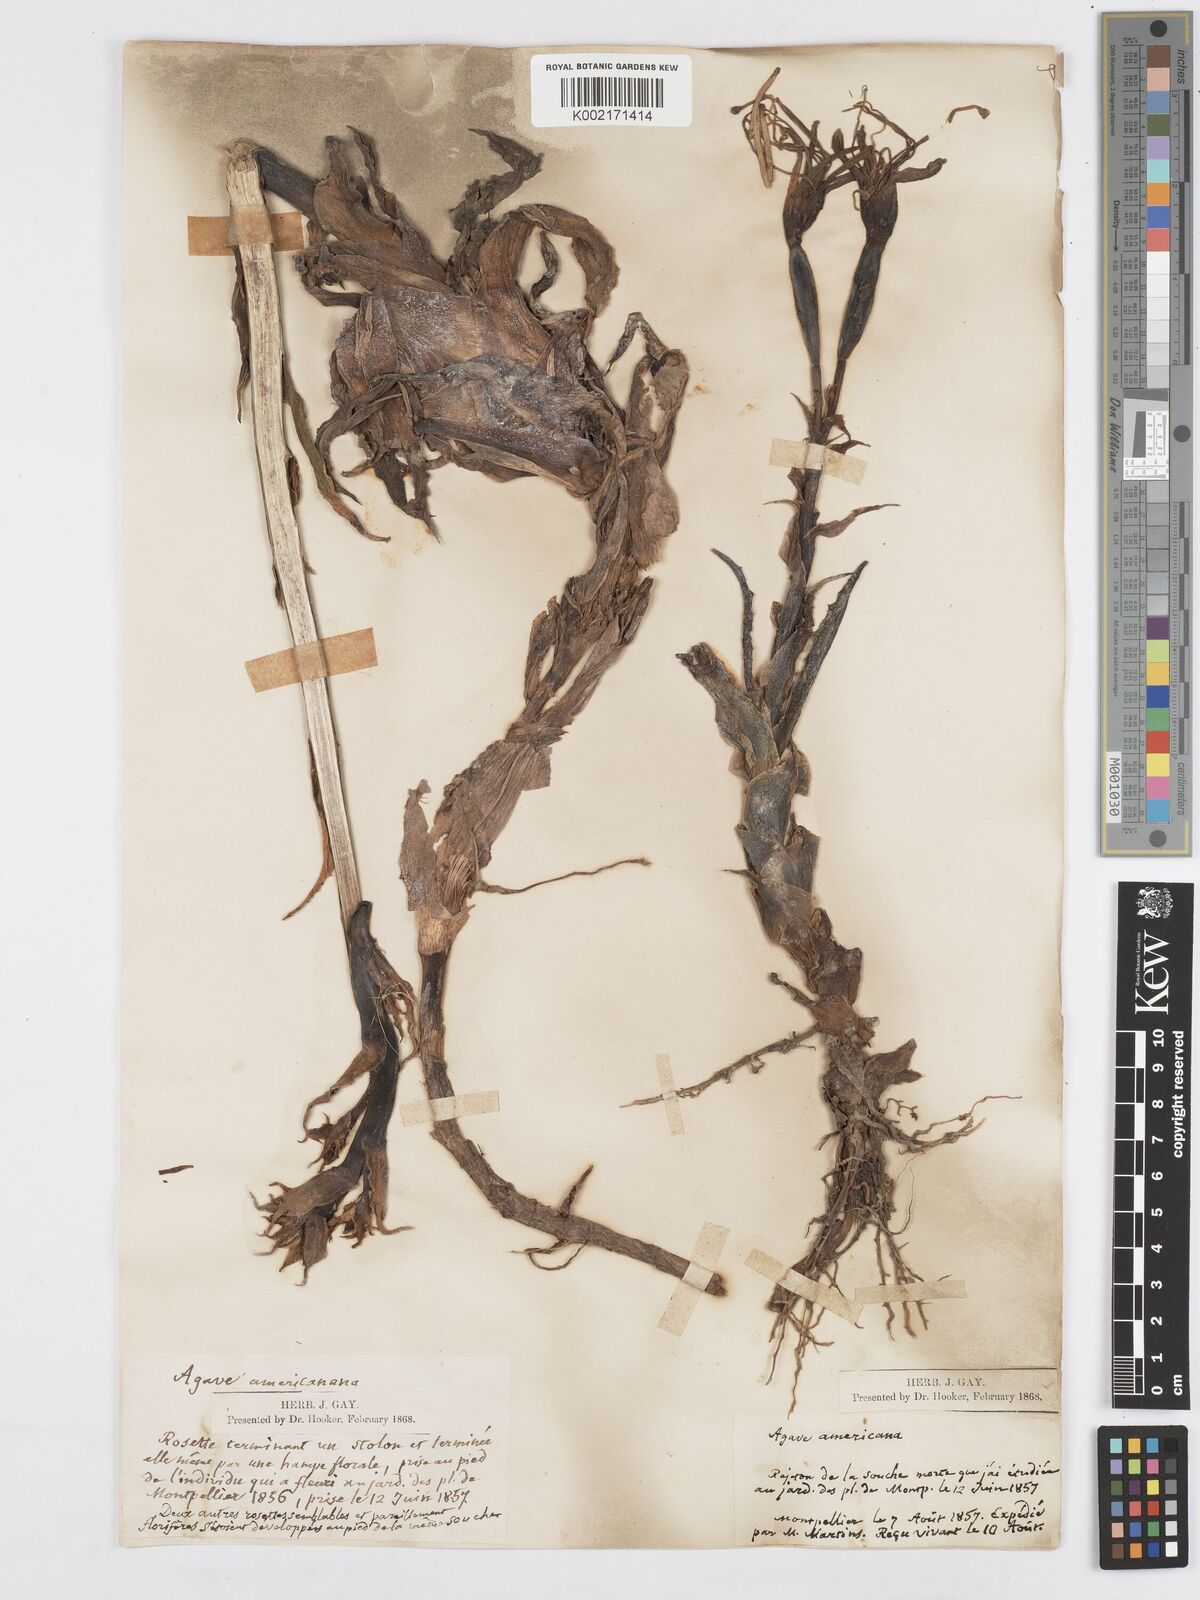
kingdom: Plantae
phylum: Tracheophyta
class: Liliopsida
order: Asparagales
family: Asparagaceae
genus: Agave
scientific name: Agave americana
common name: Centuryplant
